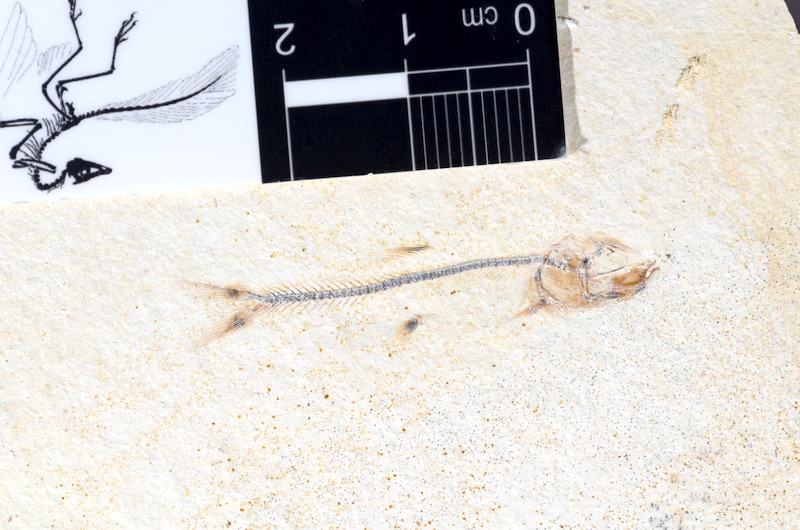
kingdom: Animalia
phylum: Chordata
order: Salmoniformes
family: Orthogonikleithridae
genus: Orthogonikleithrus
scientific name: Orthogonikleithrus hoelli
